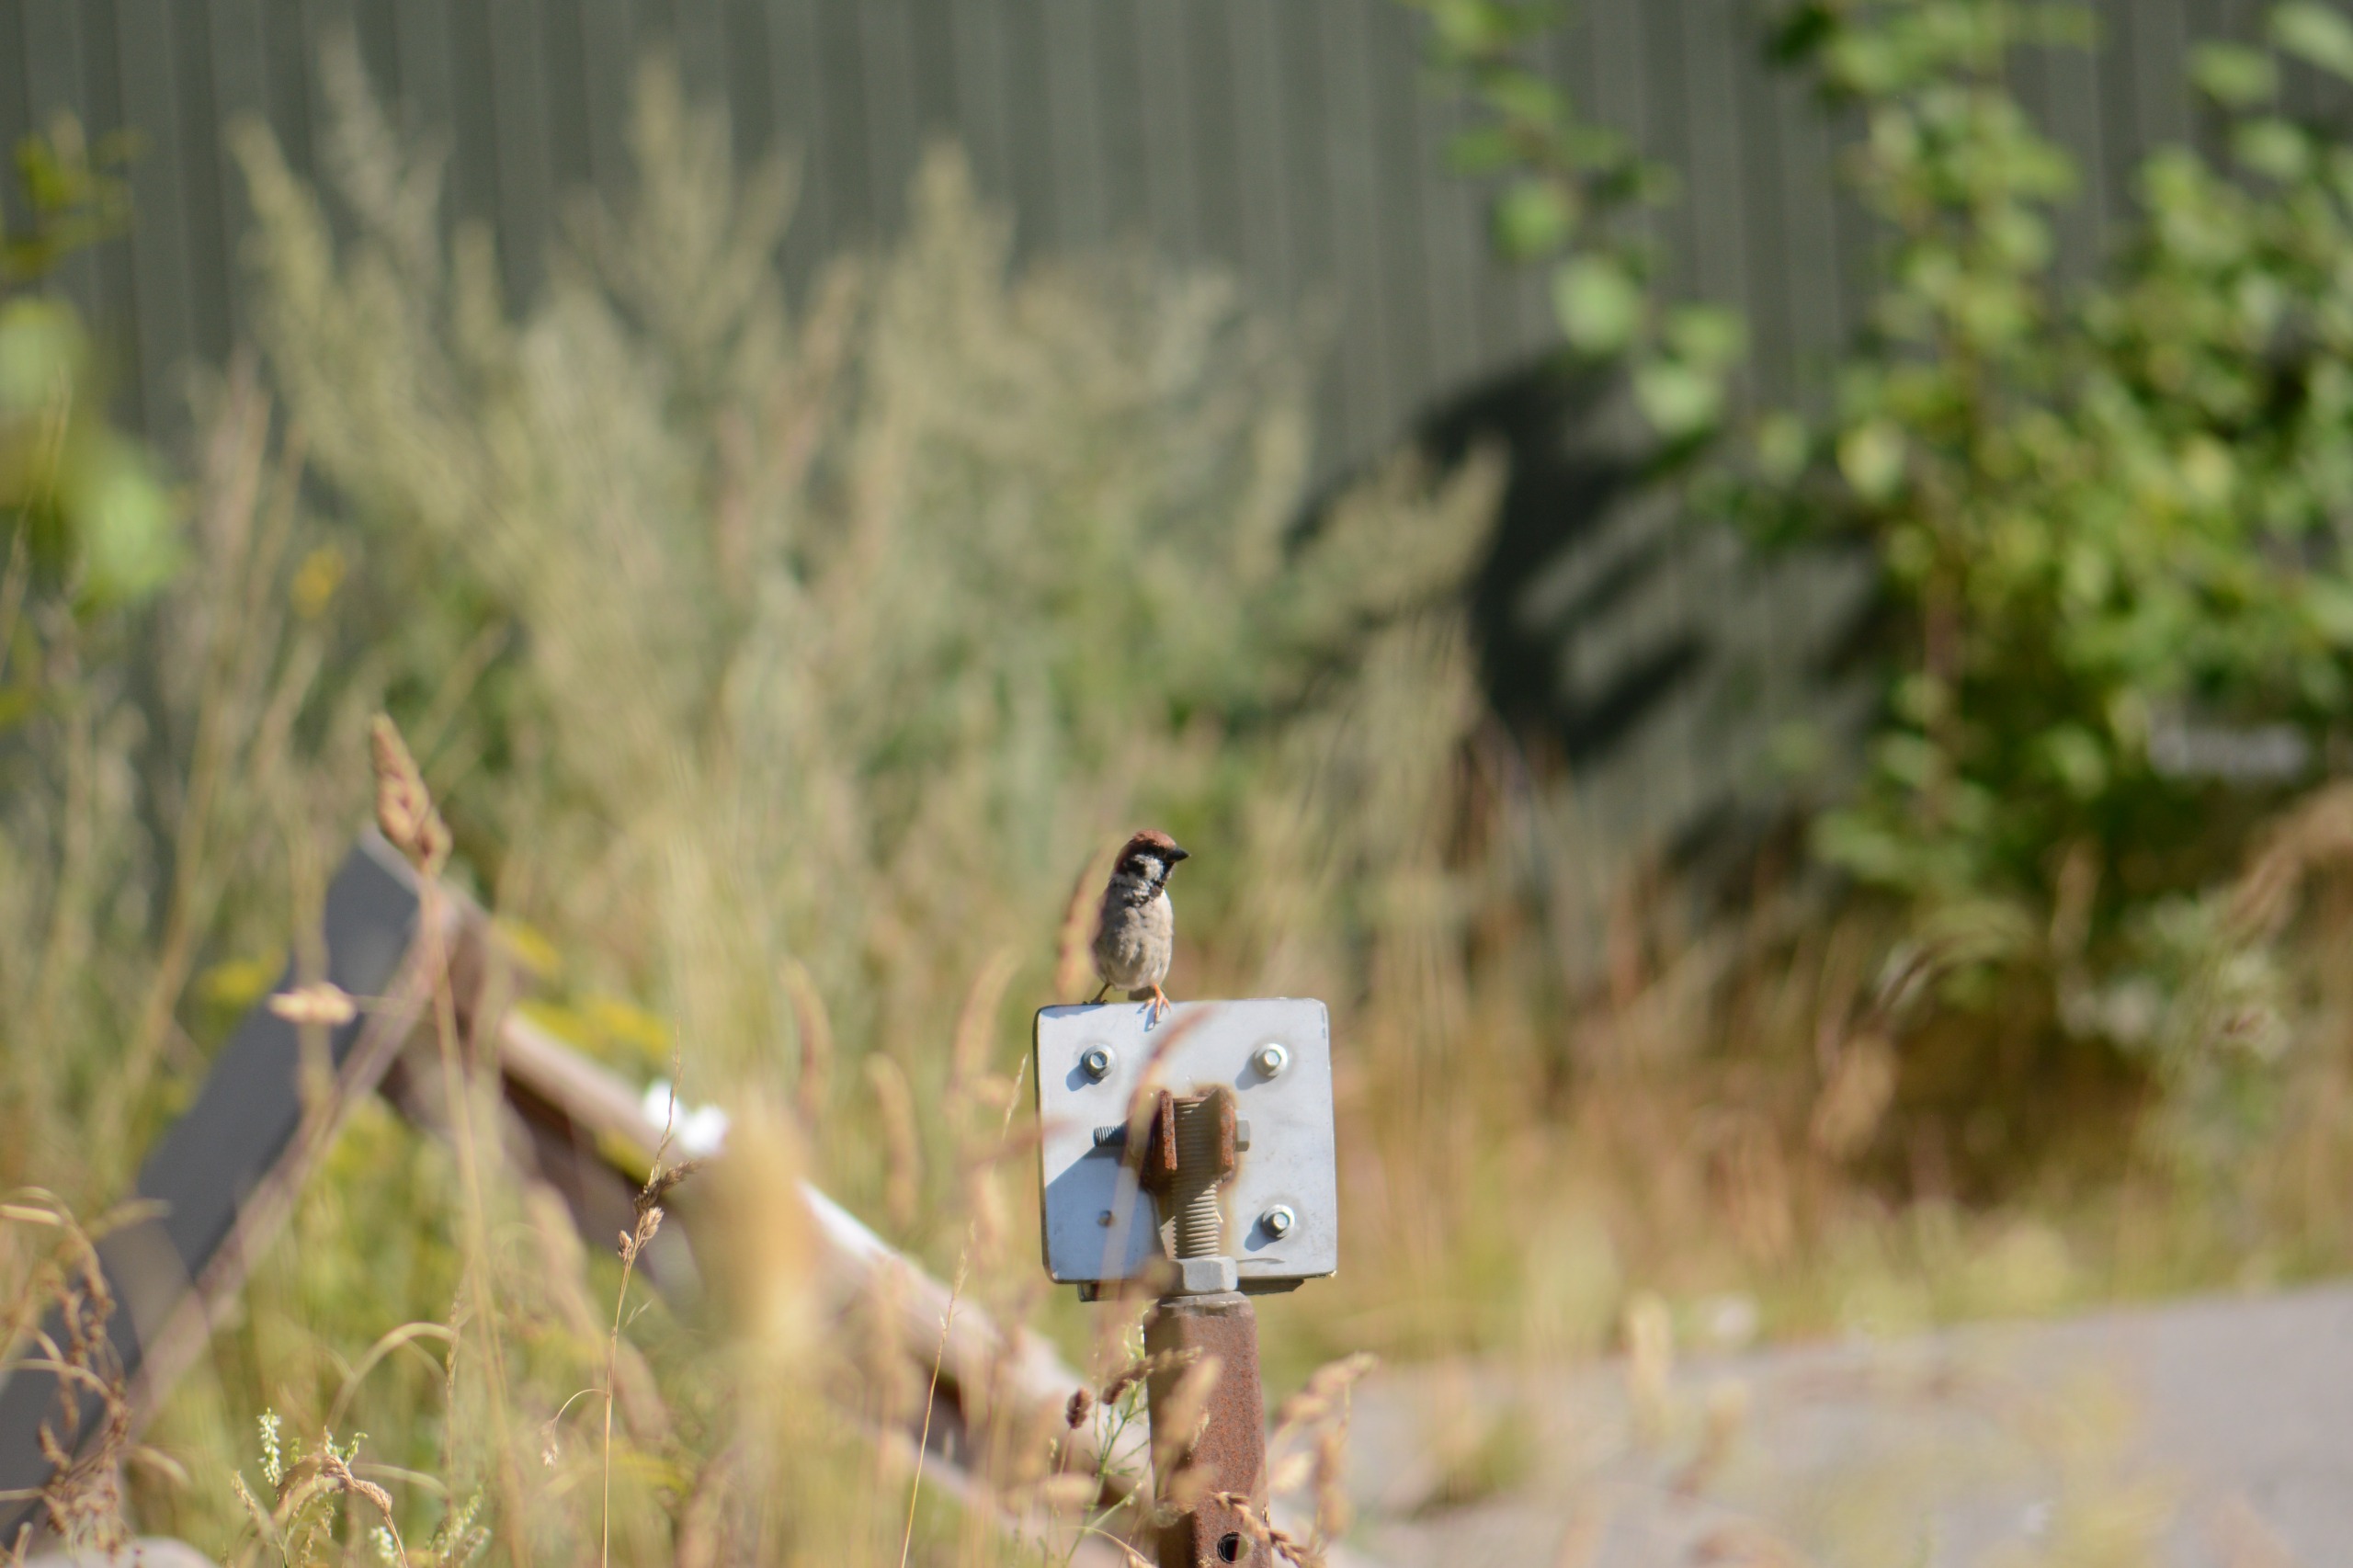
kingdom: Animalia
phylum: Chordata
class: Aves
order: Passeriformes
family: Passeridae
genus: Passer
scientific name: Passer montanus
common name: Skovspurv
